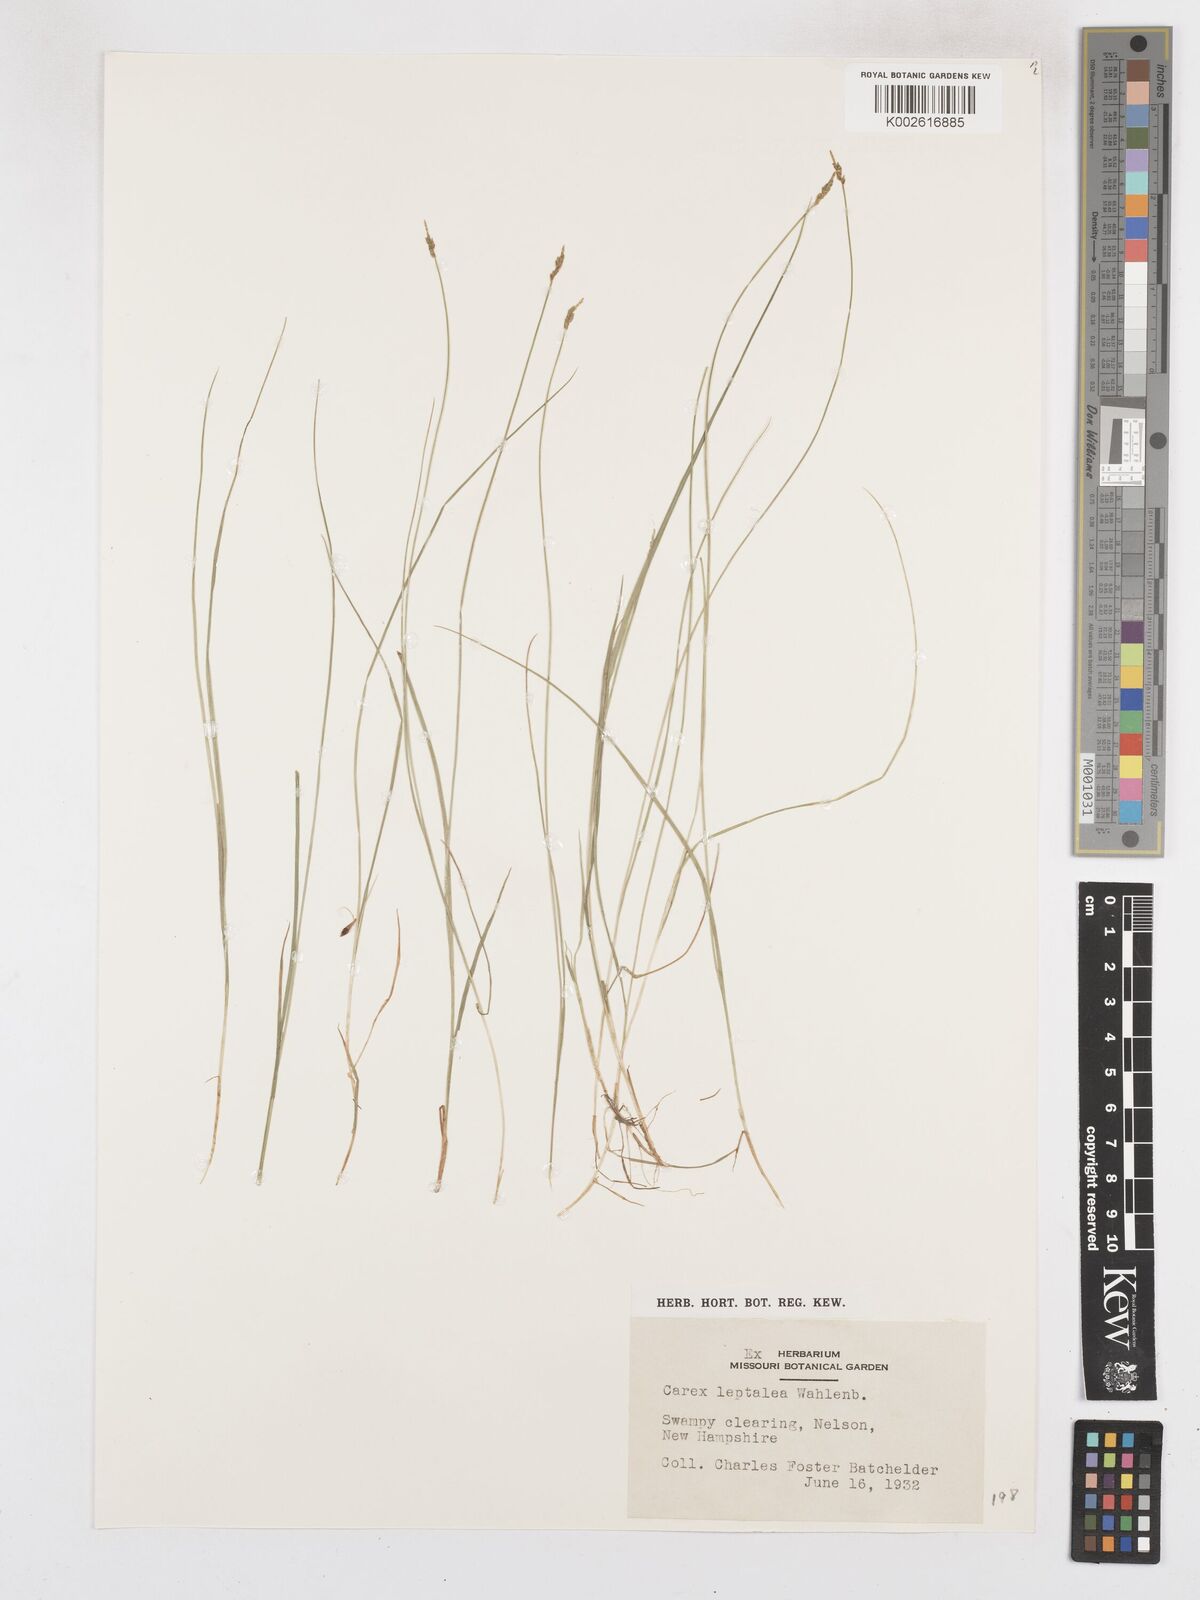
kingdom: Plantae
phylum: Tracheophyta
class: Liliopsida
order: Poales
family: Cyperaceae
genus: Carex
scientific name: Carex leptalea
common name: Bristly-stalked sedge
